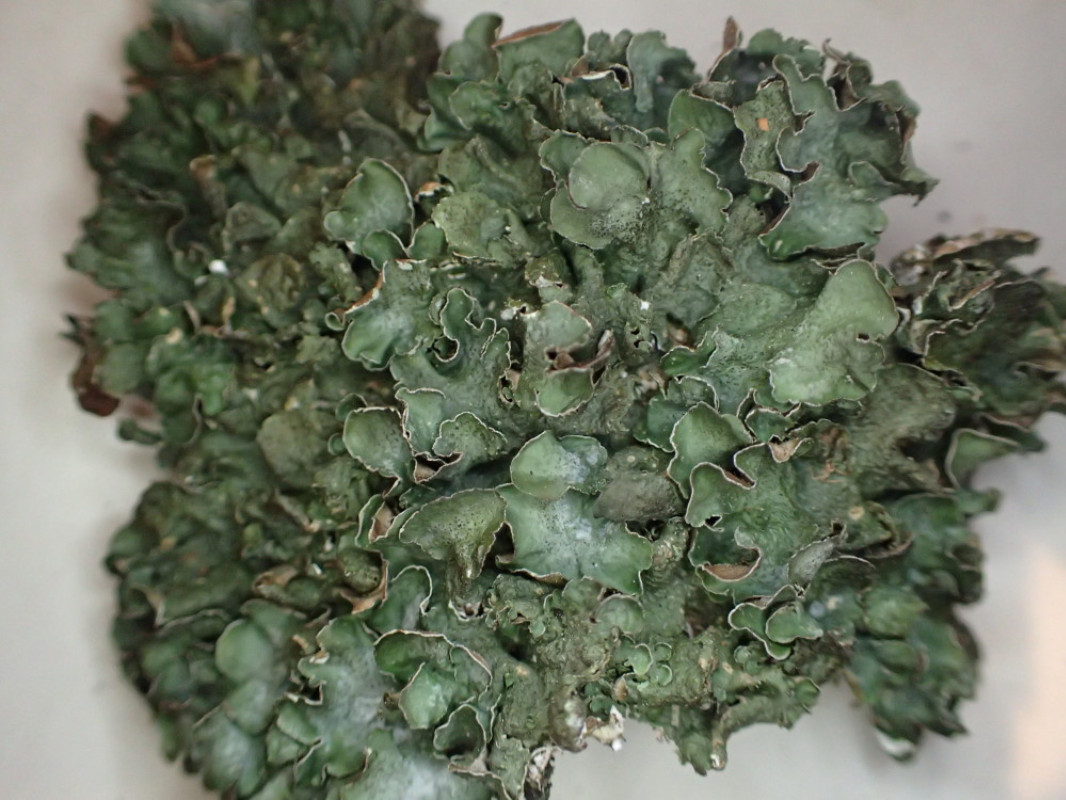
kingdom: Fungi
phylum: Ascomycota
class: Lecanoromycetes
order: Lecanorales
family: Parmeliaceae
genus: Pleurosticta
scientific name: Pleurosticta acetabulum
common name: stor skållav
